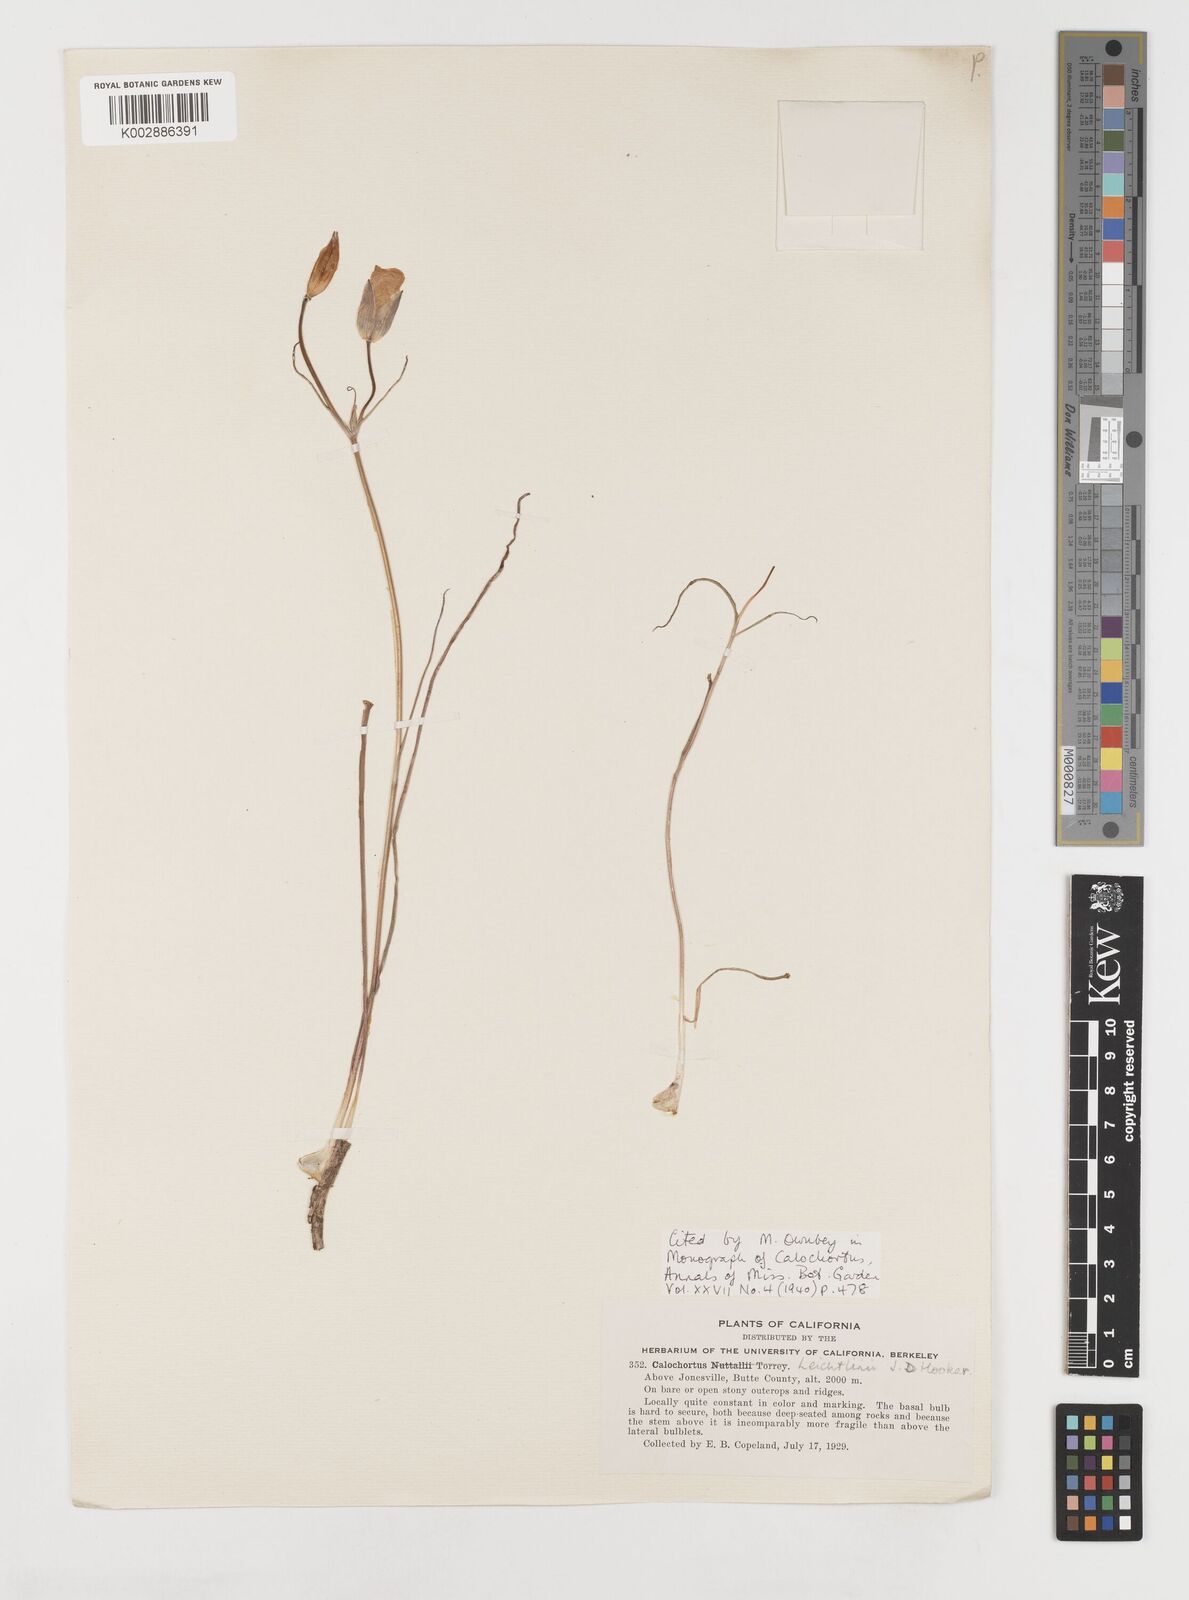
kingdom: Plantae
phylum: Tracheophyta
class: Liliopsida
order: Liliales
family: Liliaceae
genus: Calochortus
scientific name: Calochortus leichtlinii
